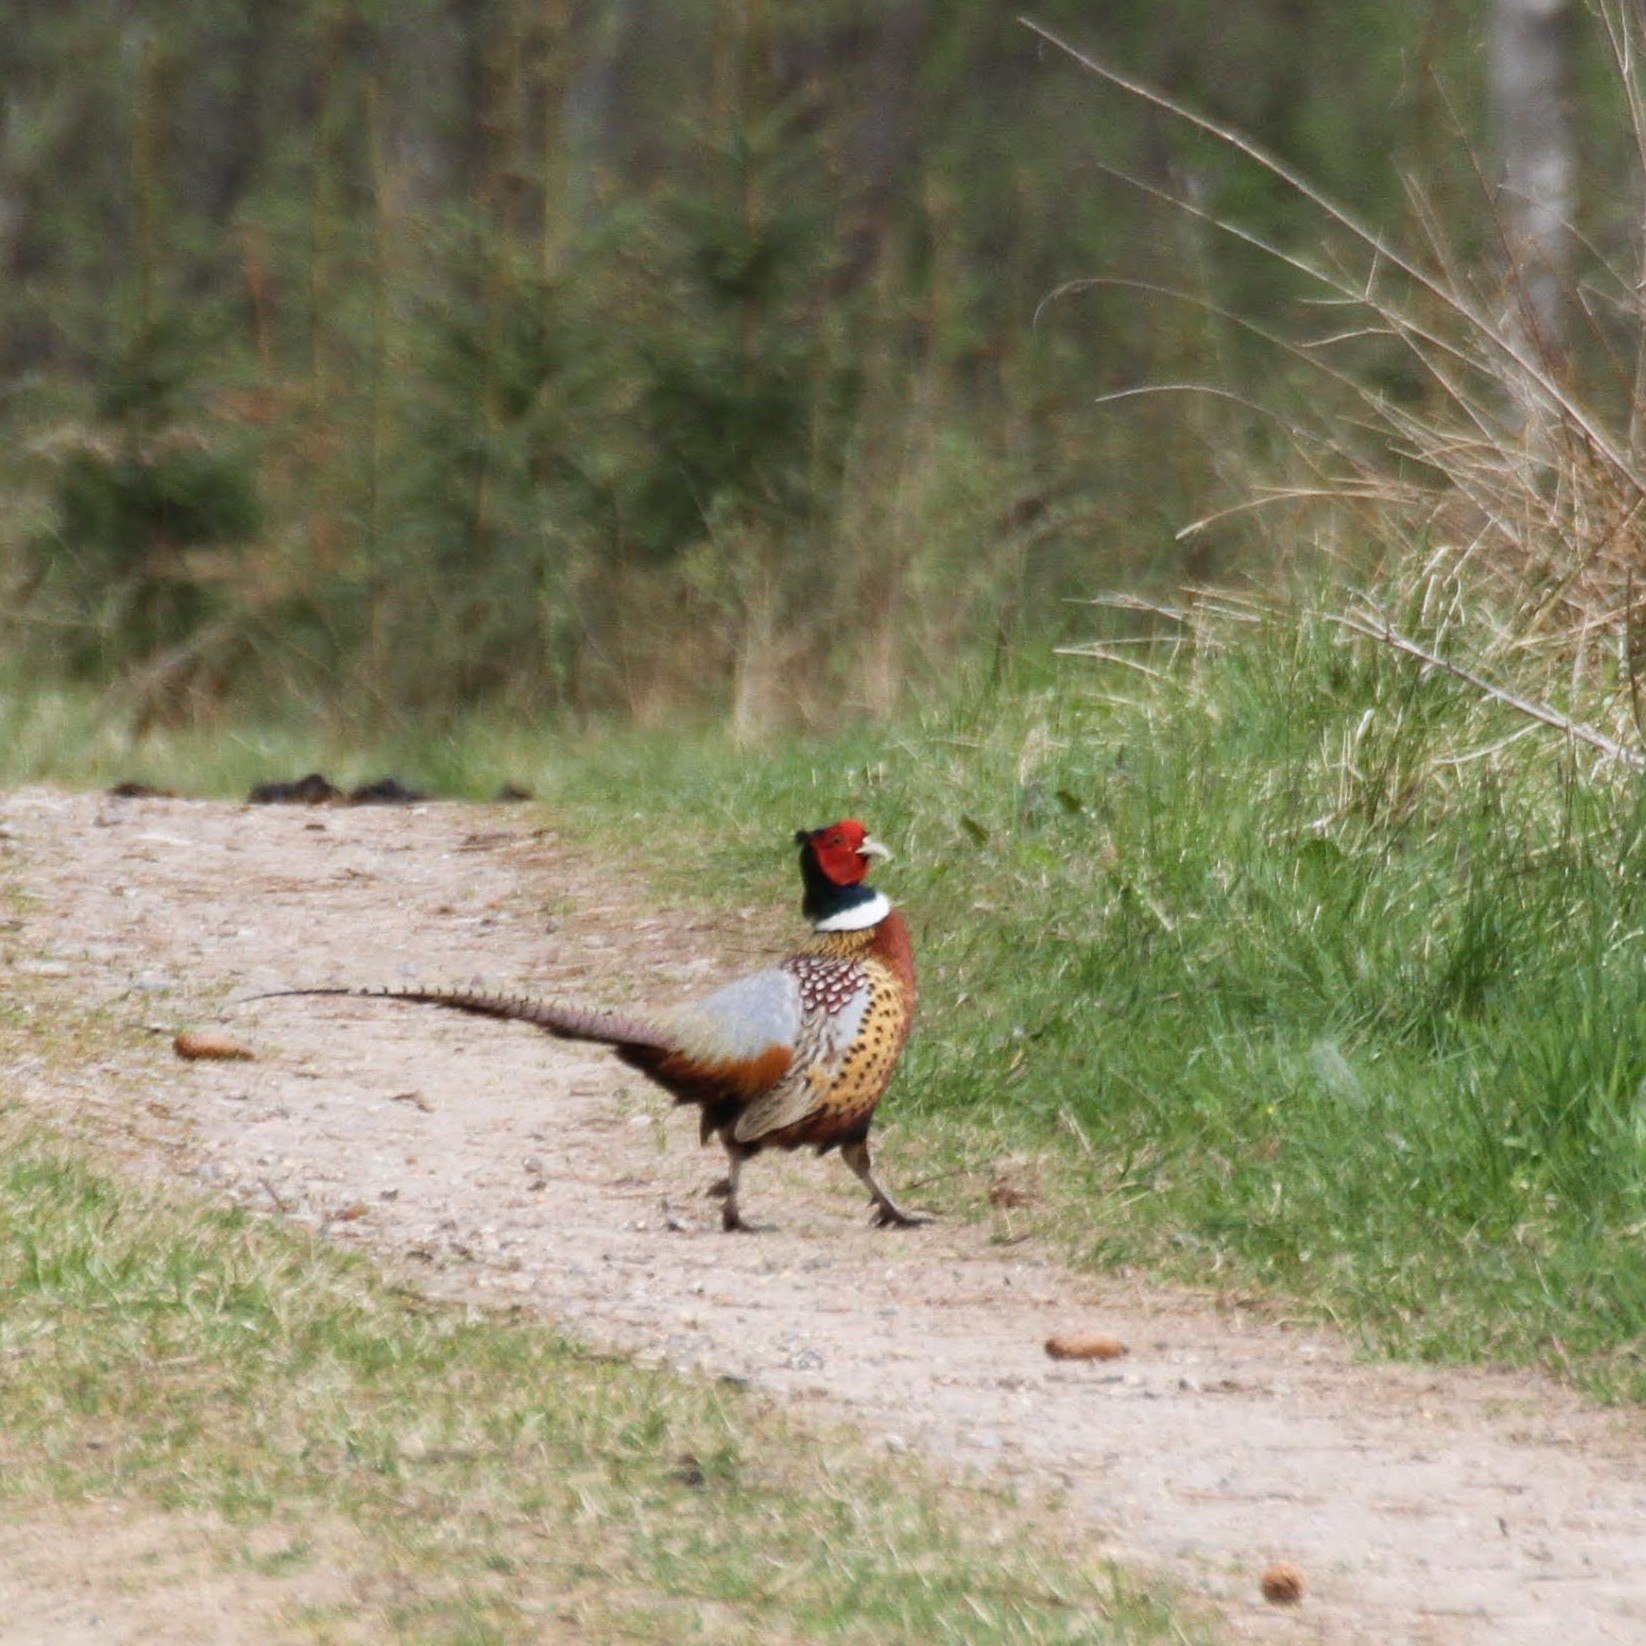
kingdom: Animalia
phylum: Chordata
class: Aves
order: Galliformes
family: Phasianidae
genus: Phasianus
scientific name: Phasianus colchicus
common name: Fasan
